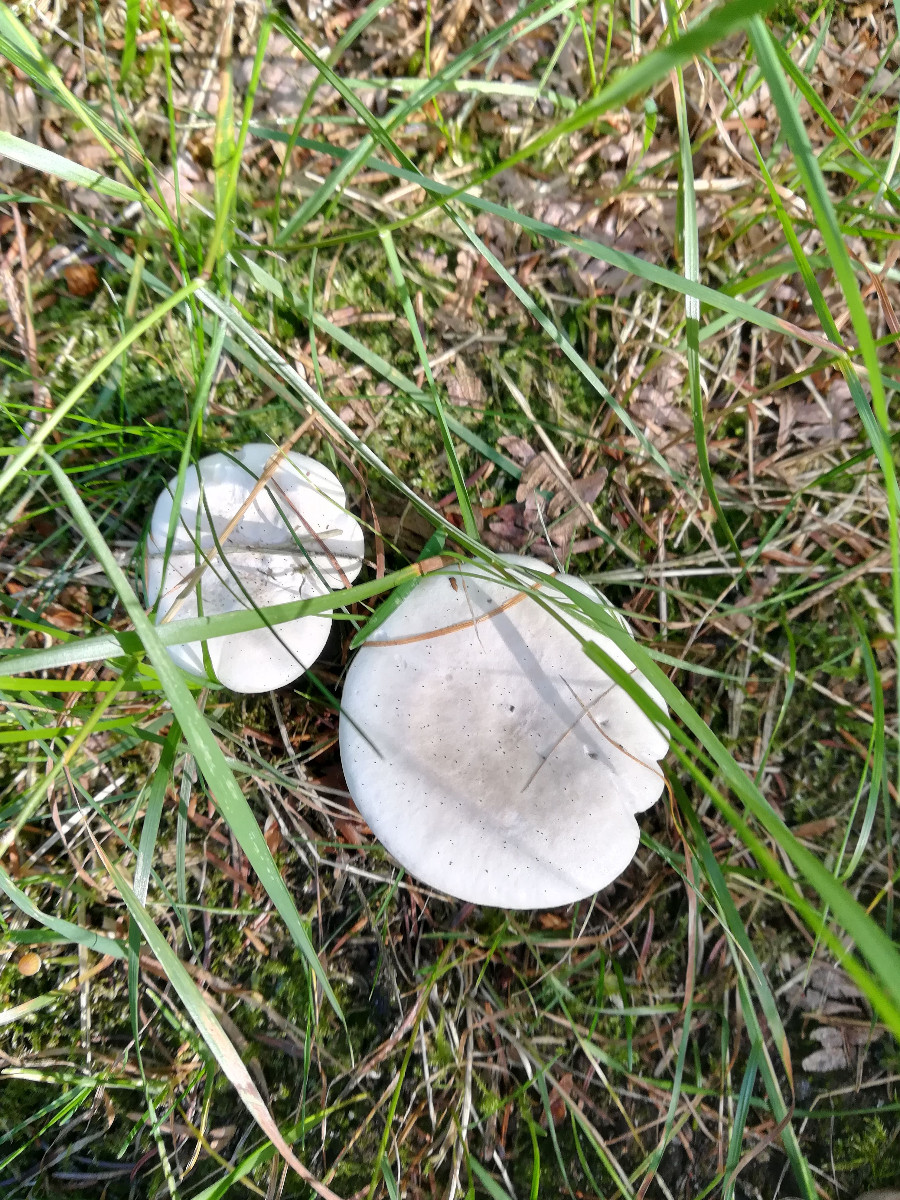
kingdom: Fungi
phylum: Basidiomycota
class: Agaricomycetes
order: Agaricales
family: Entolomataceae
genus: Clitopilus
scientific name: Clitopilus prunulus
